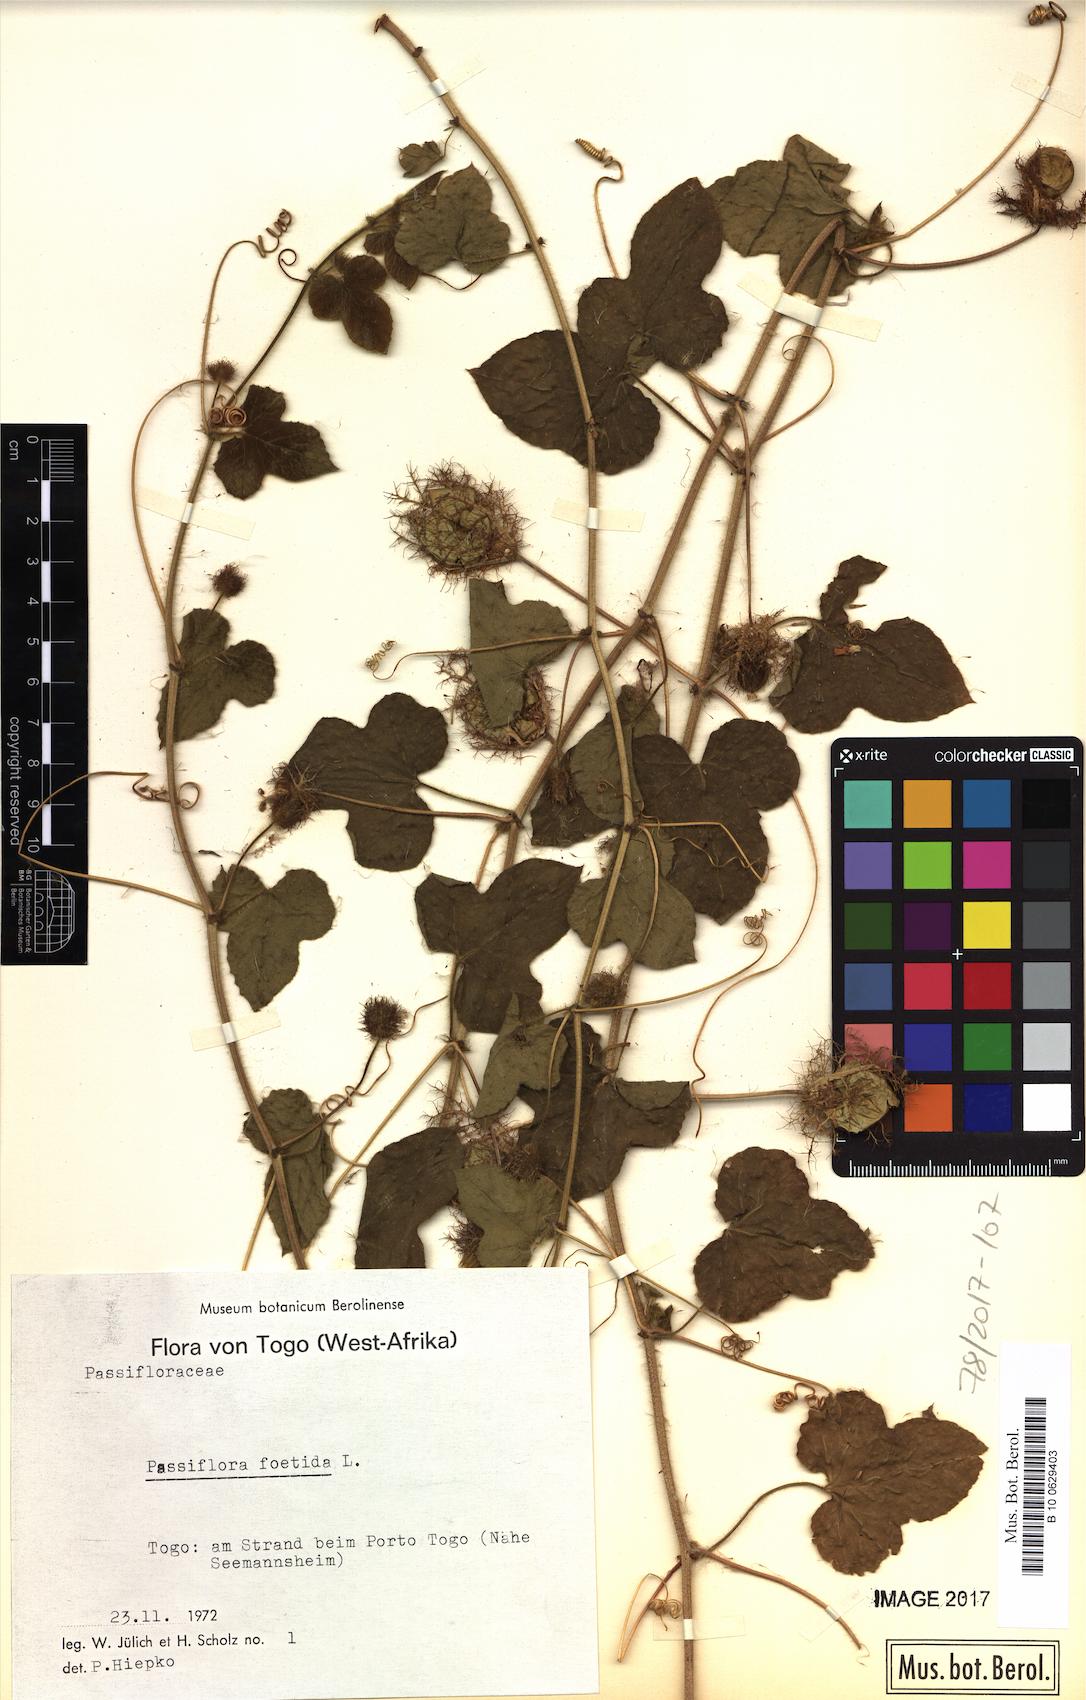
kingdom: Plantae
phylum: Tracheophyta
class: Magnoliopsida
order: Malpighiales
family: Passifloraceae
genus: Passiflora
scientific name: Passiflora foetida
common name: Fetid passionflower
